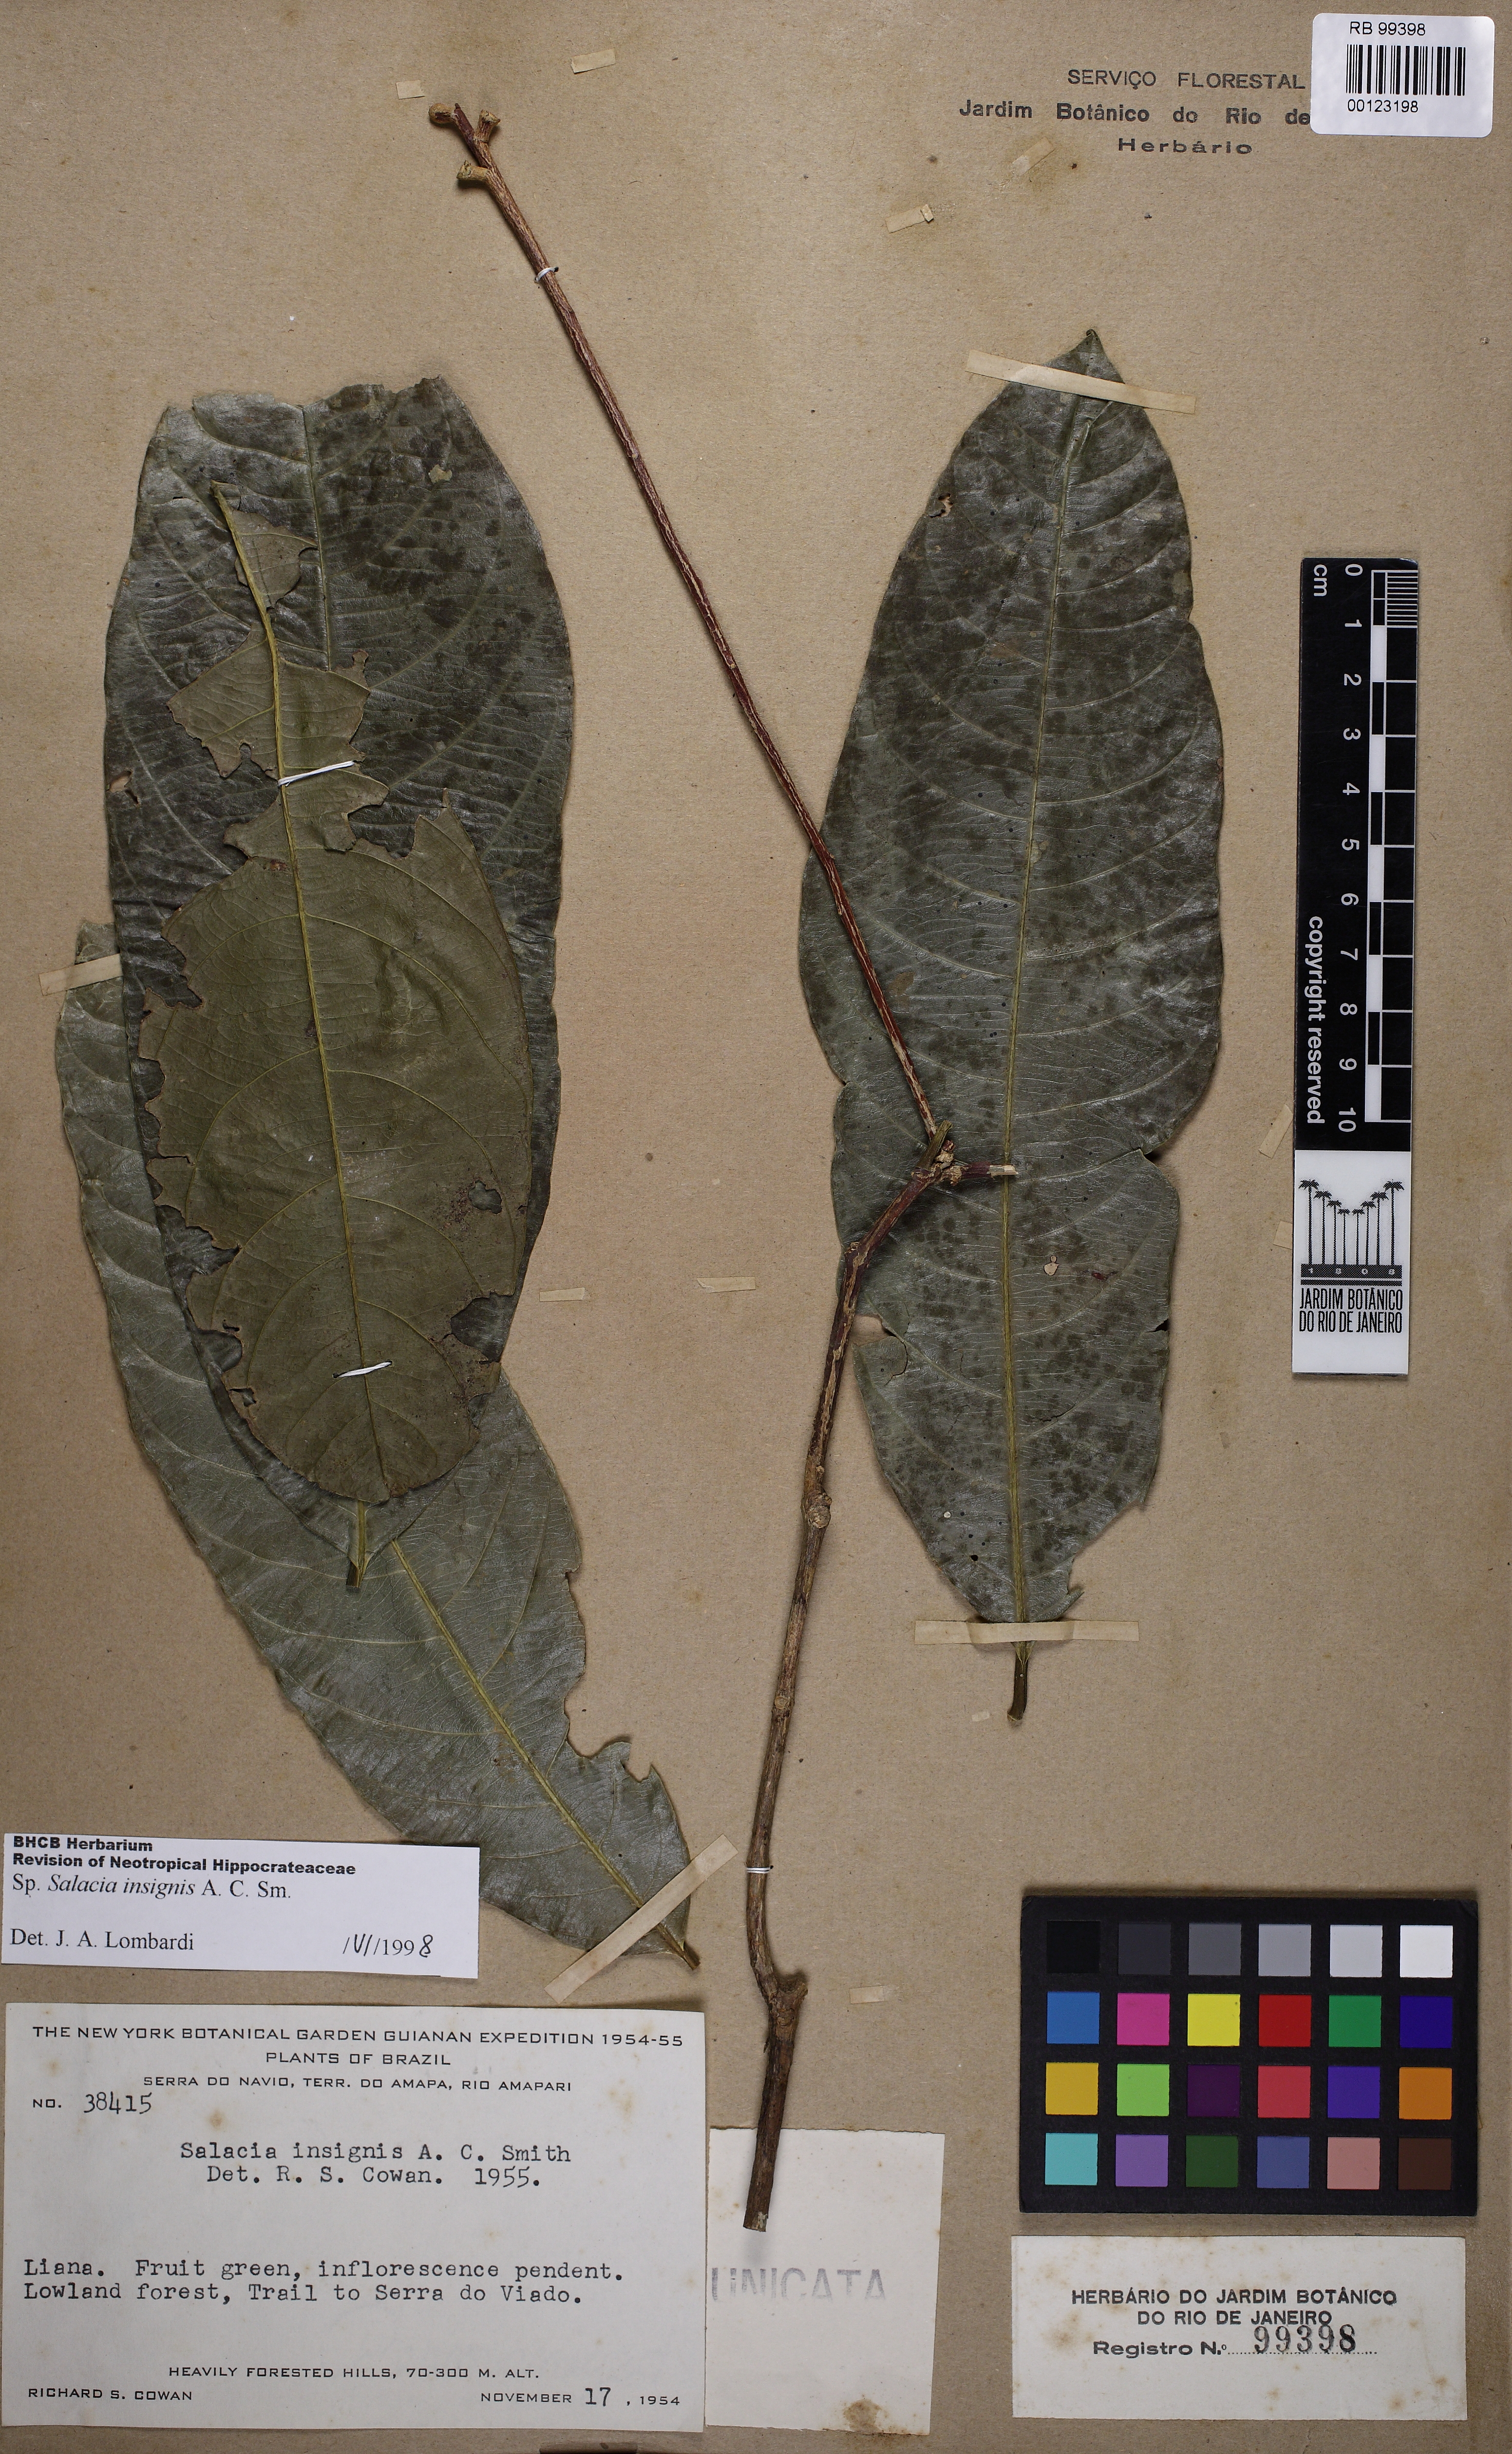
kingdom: Plantae
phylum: Tracheophyta
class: Magnoliopsida
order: Celastrales
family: Celastraceae
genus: Salacia
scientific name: Salacia insignis
